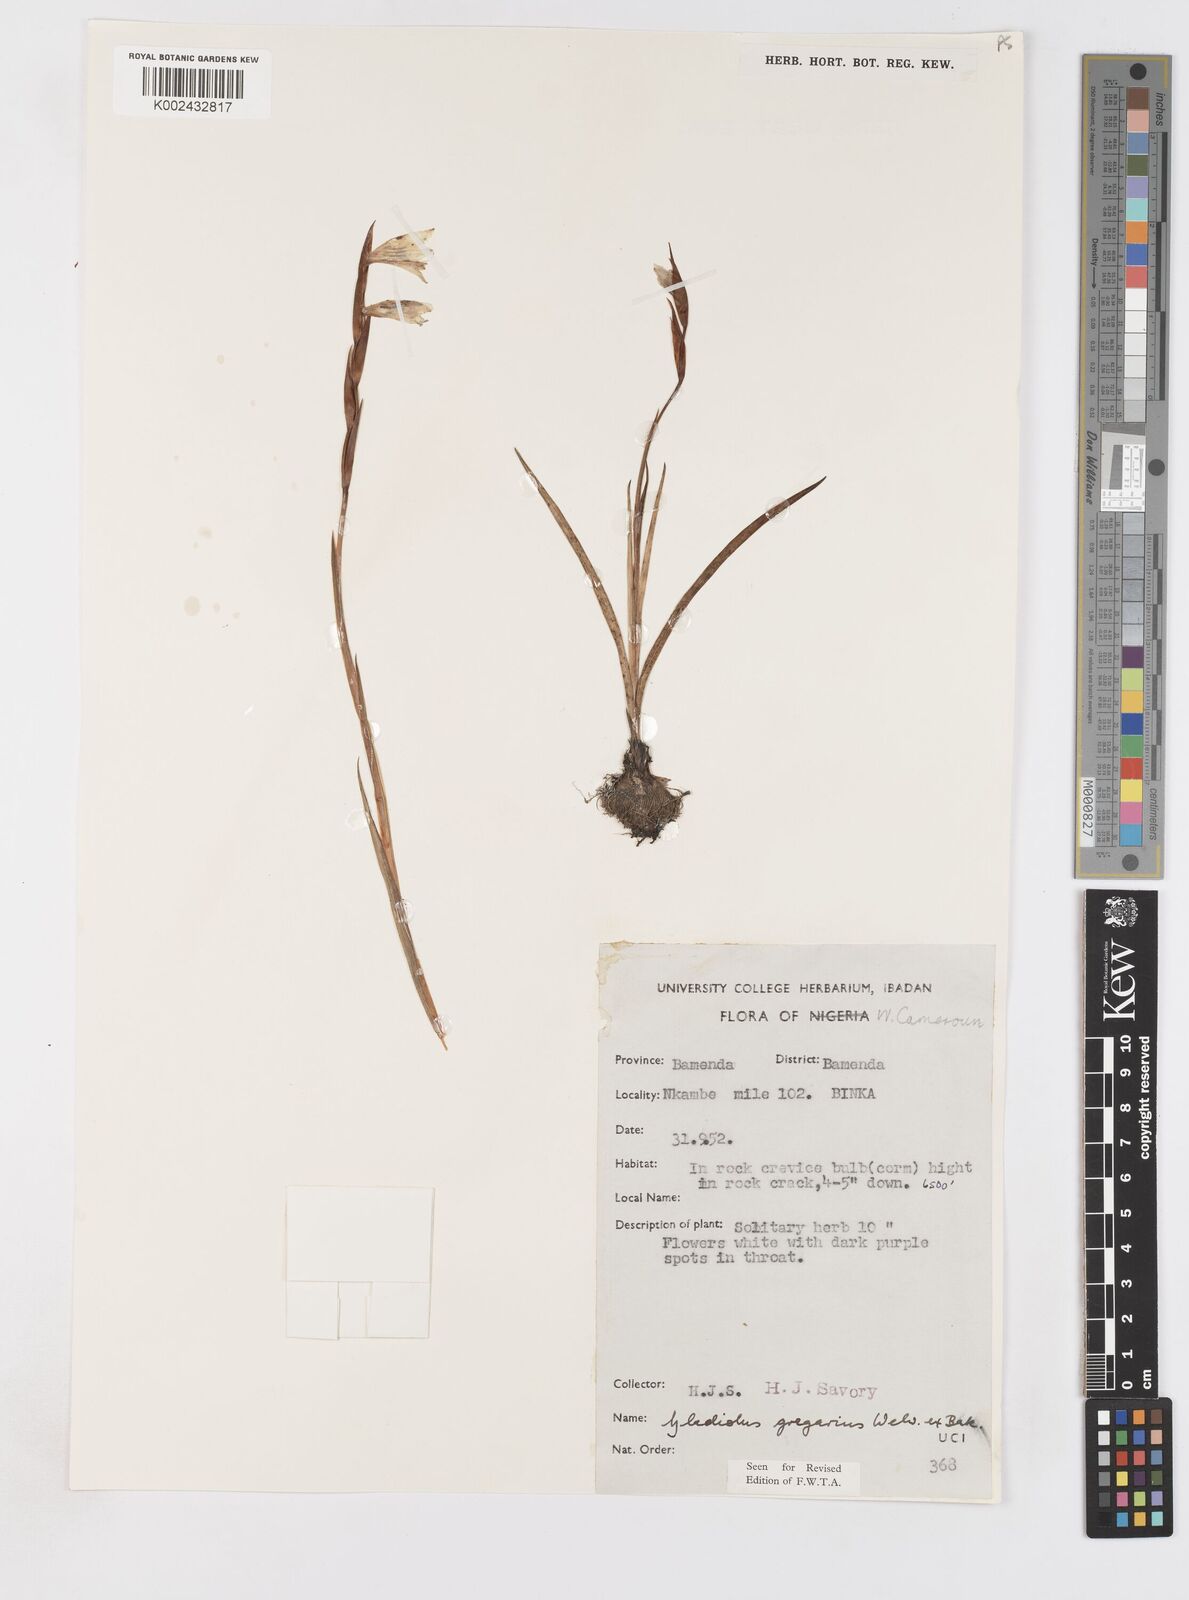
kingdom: Plantae
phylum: Tracheophyta
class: Liliopsida
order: Asparagales
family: Iridaceae
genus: Gladiolus
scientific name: Gladiolus gregarius
